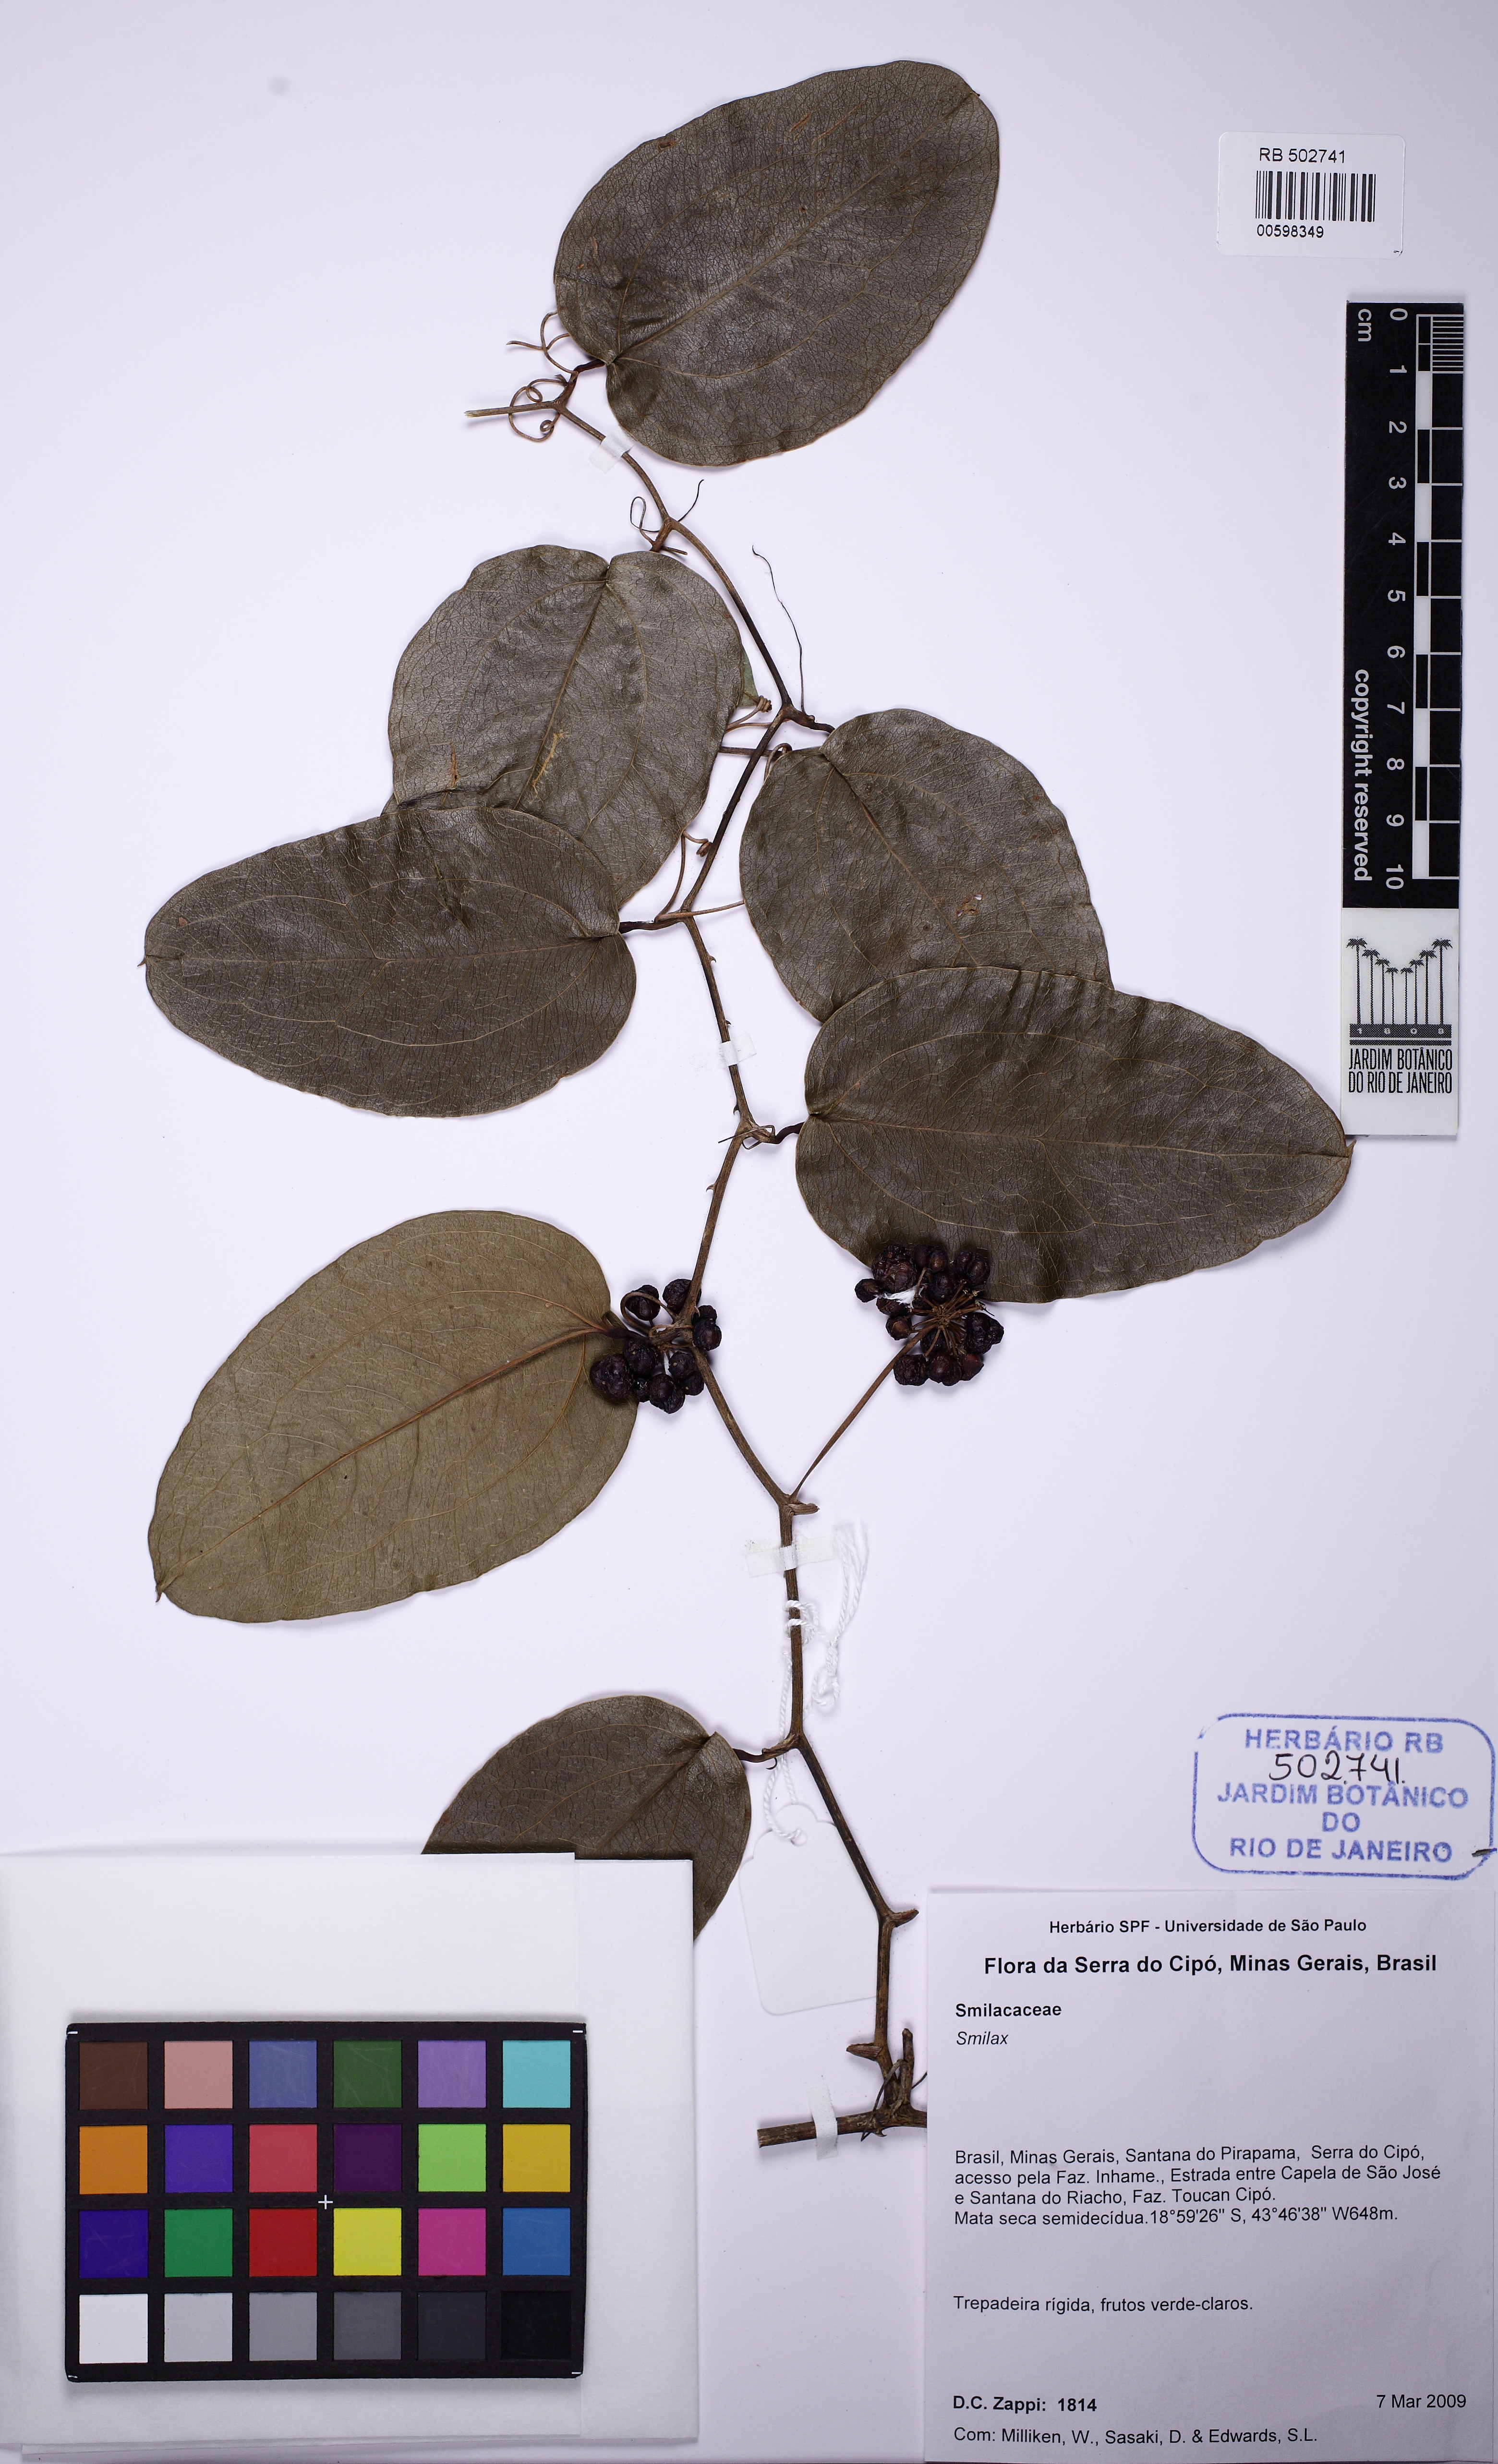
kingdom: Plantae
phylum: Tracheophyta
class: Liliopsida
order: Liliales
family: Smilacaceae
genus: Smilax
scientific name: Smilax fluminensis
